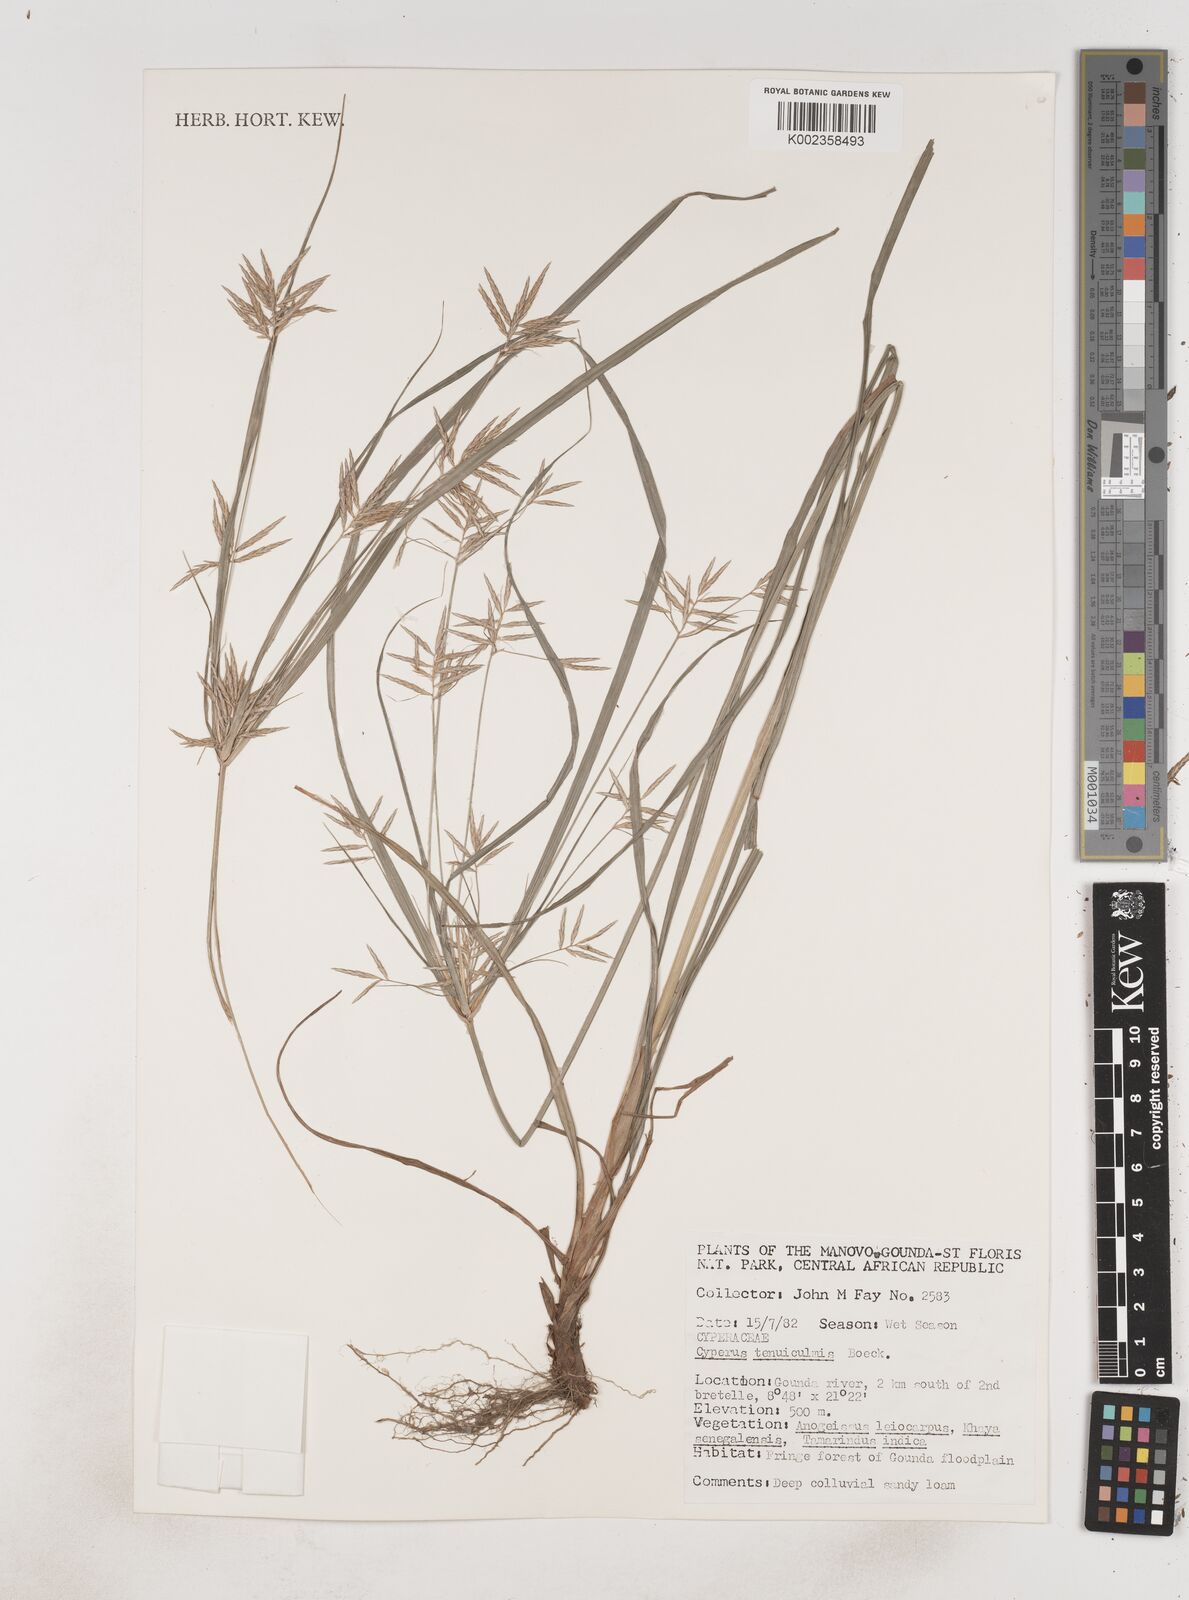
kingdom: Plantae
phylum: Tracheophyta
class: Liliopsida
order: Poales
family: Cyperaceae
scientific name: Cyperaceae
